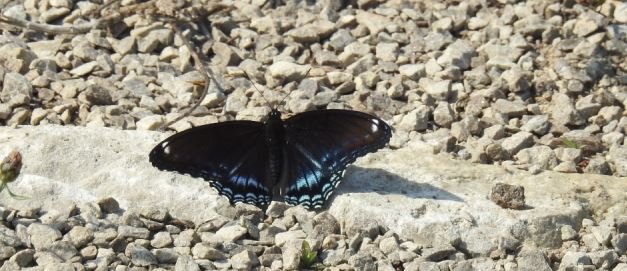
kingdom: Animalia
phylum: Arthropoda
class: Insecta
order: Lepidoptera
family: Nymphalidae
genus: Limenitis
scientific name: Limenitis astyanax
